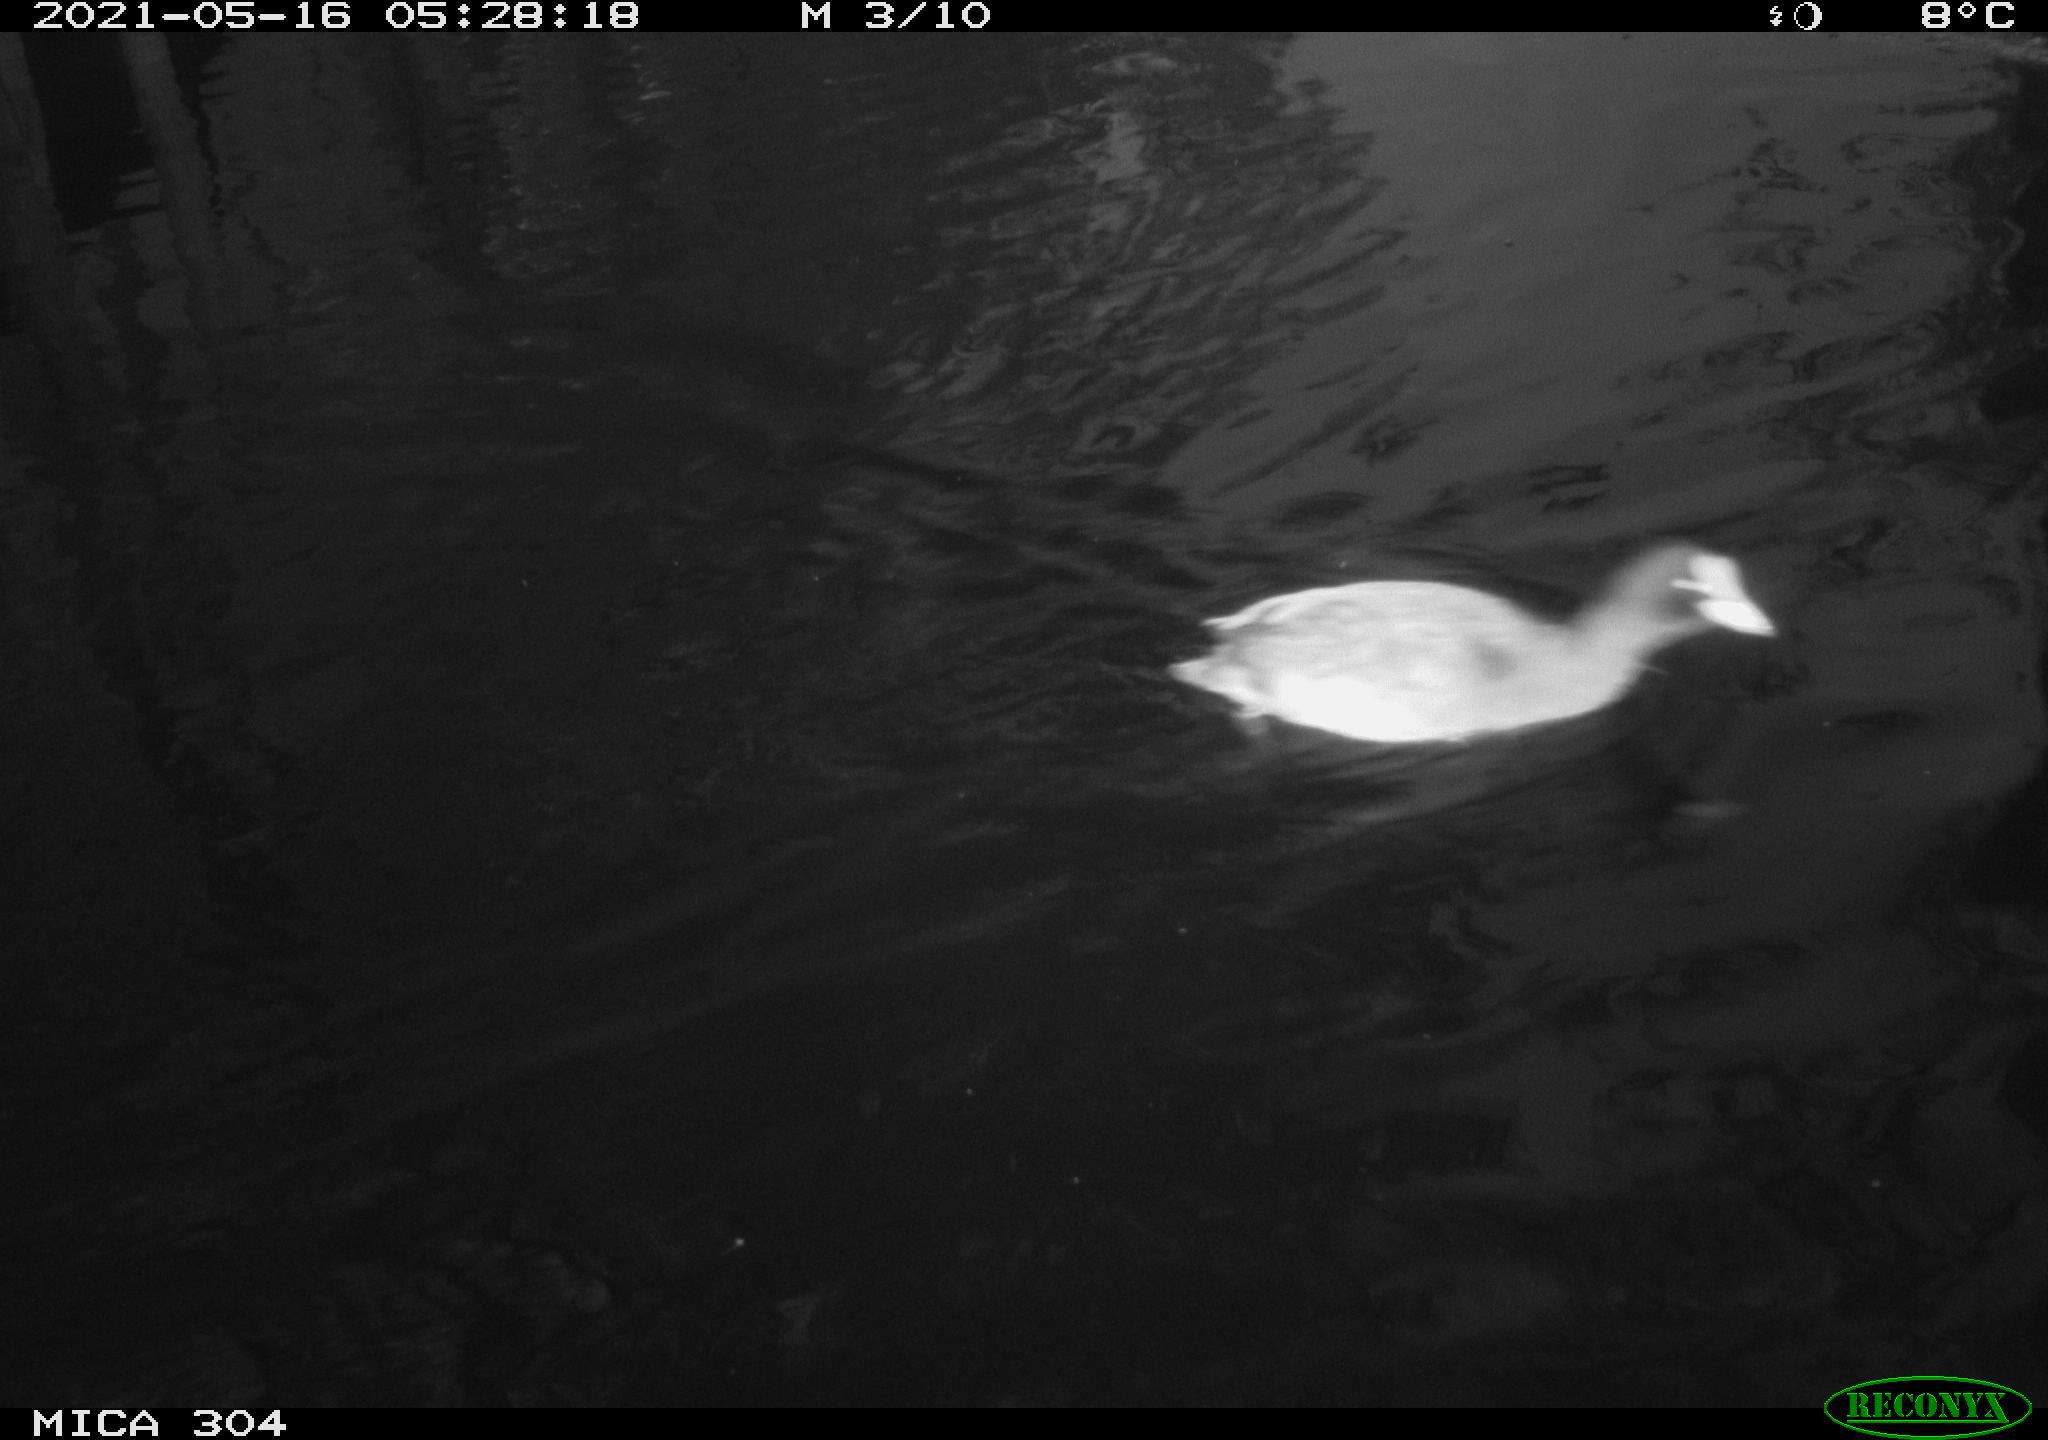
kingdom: Animalia
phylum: Chordata
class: Aves
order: Gruiformes
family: Rallidae
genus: Fulica
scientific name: Fulica atra
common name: Eurasian coot
